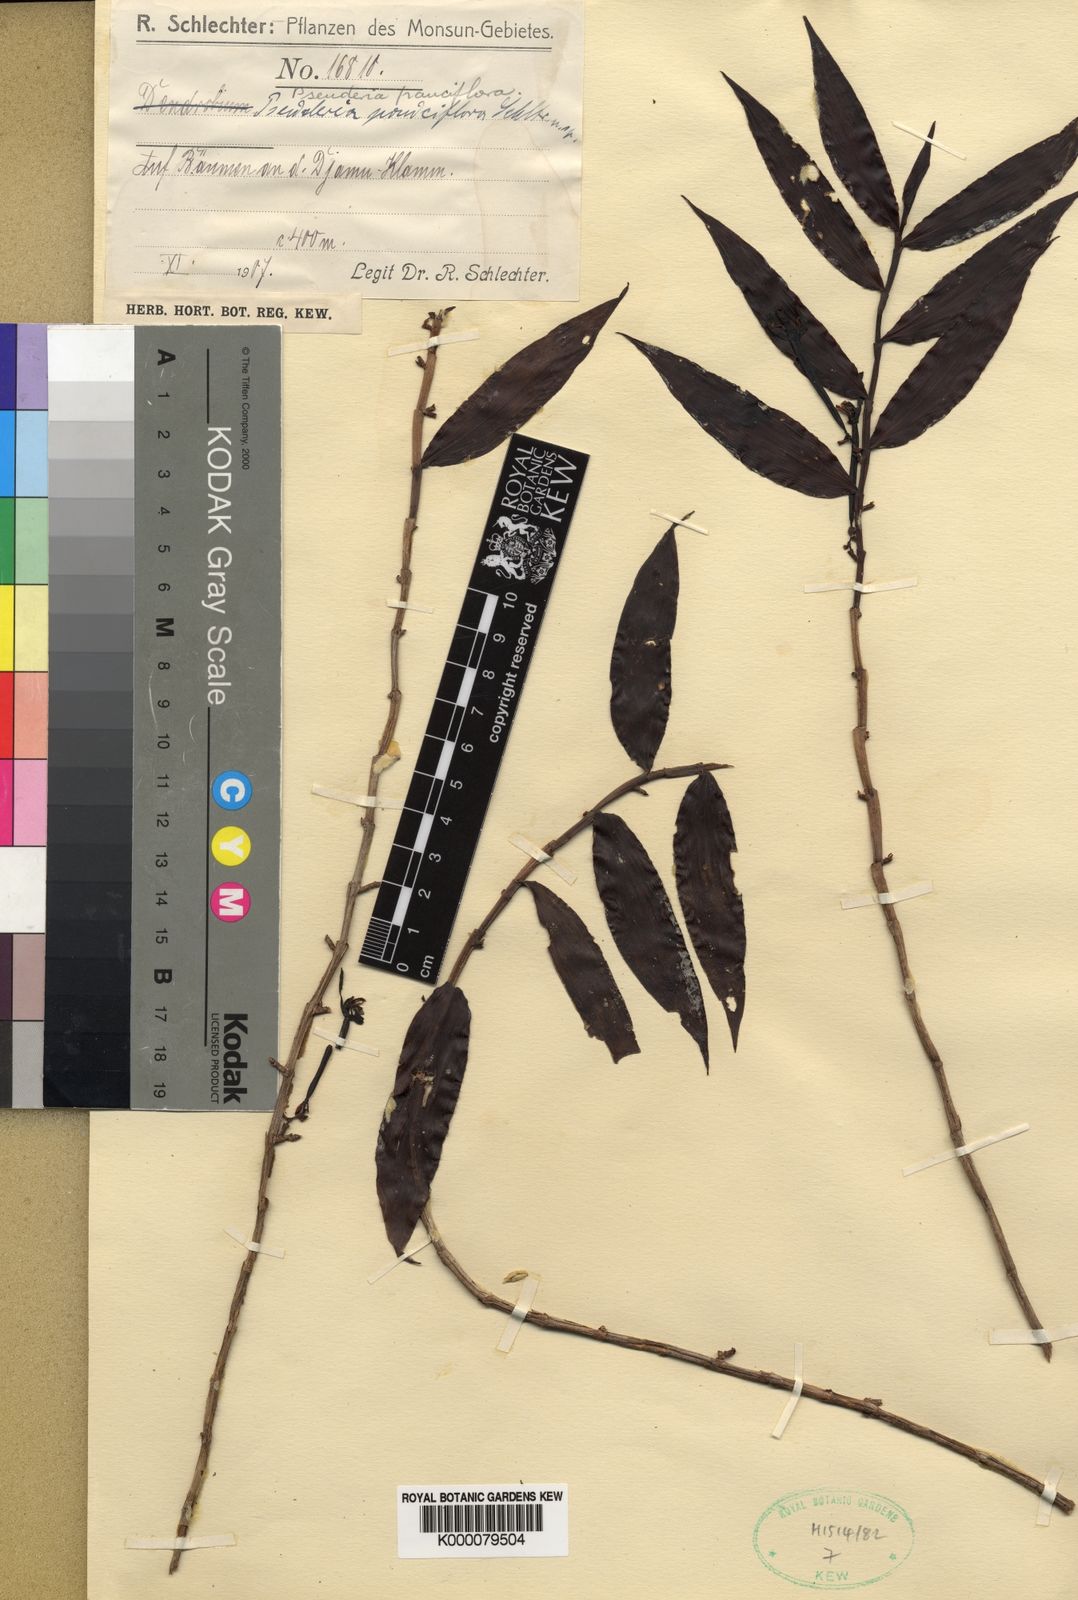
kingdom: Plantae
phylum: Tracheophyta
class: Liliopsida
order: Asparagales
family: Orchidaceae
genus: Pseuderia
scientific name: Pseuderia pauciflora
